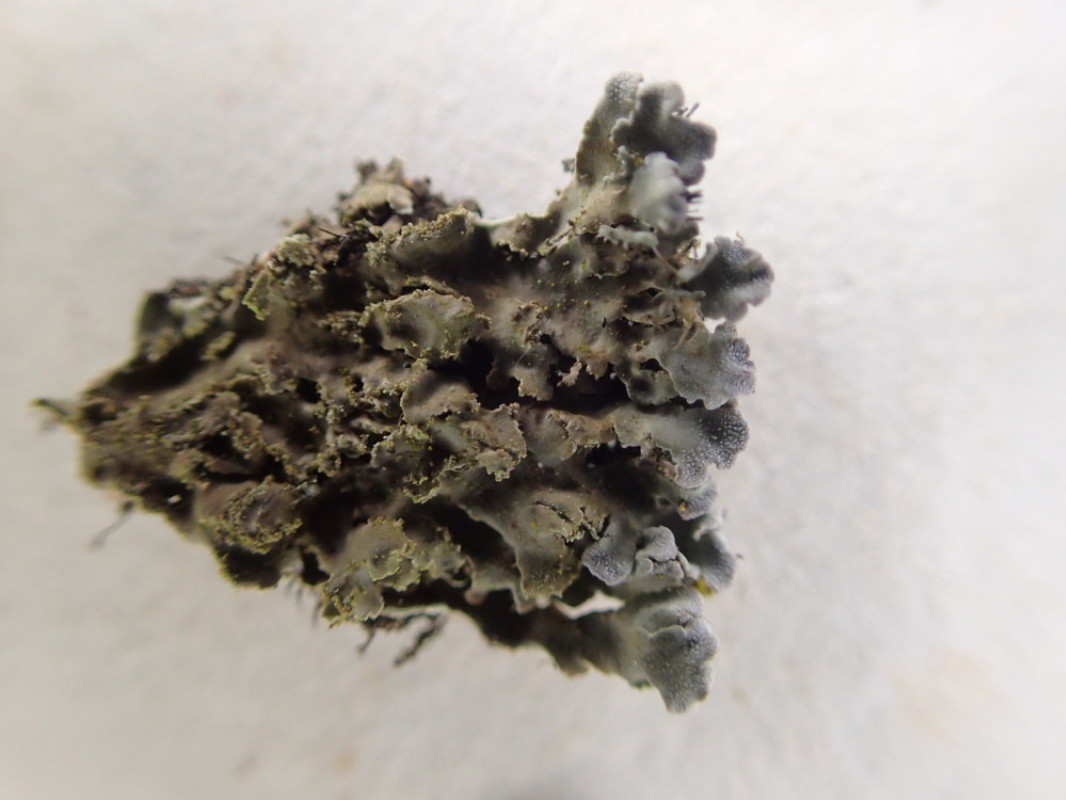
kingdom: Fungi
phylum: Ascomycota
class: Lecanoromycetes
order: Caliciales
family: Physciaceae
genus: Physconia
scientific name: Physconia perisidiosa
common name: liden dugrosetlav
